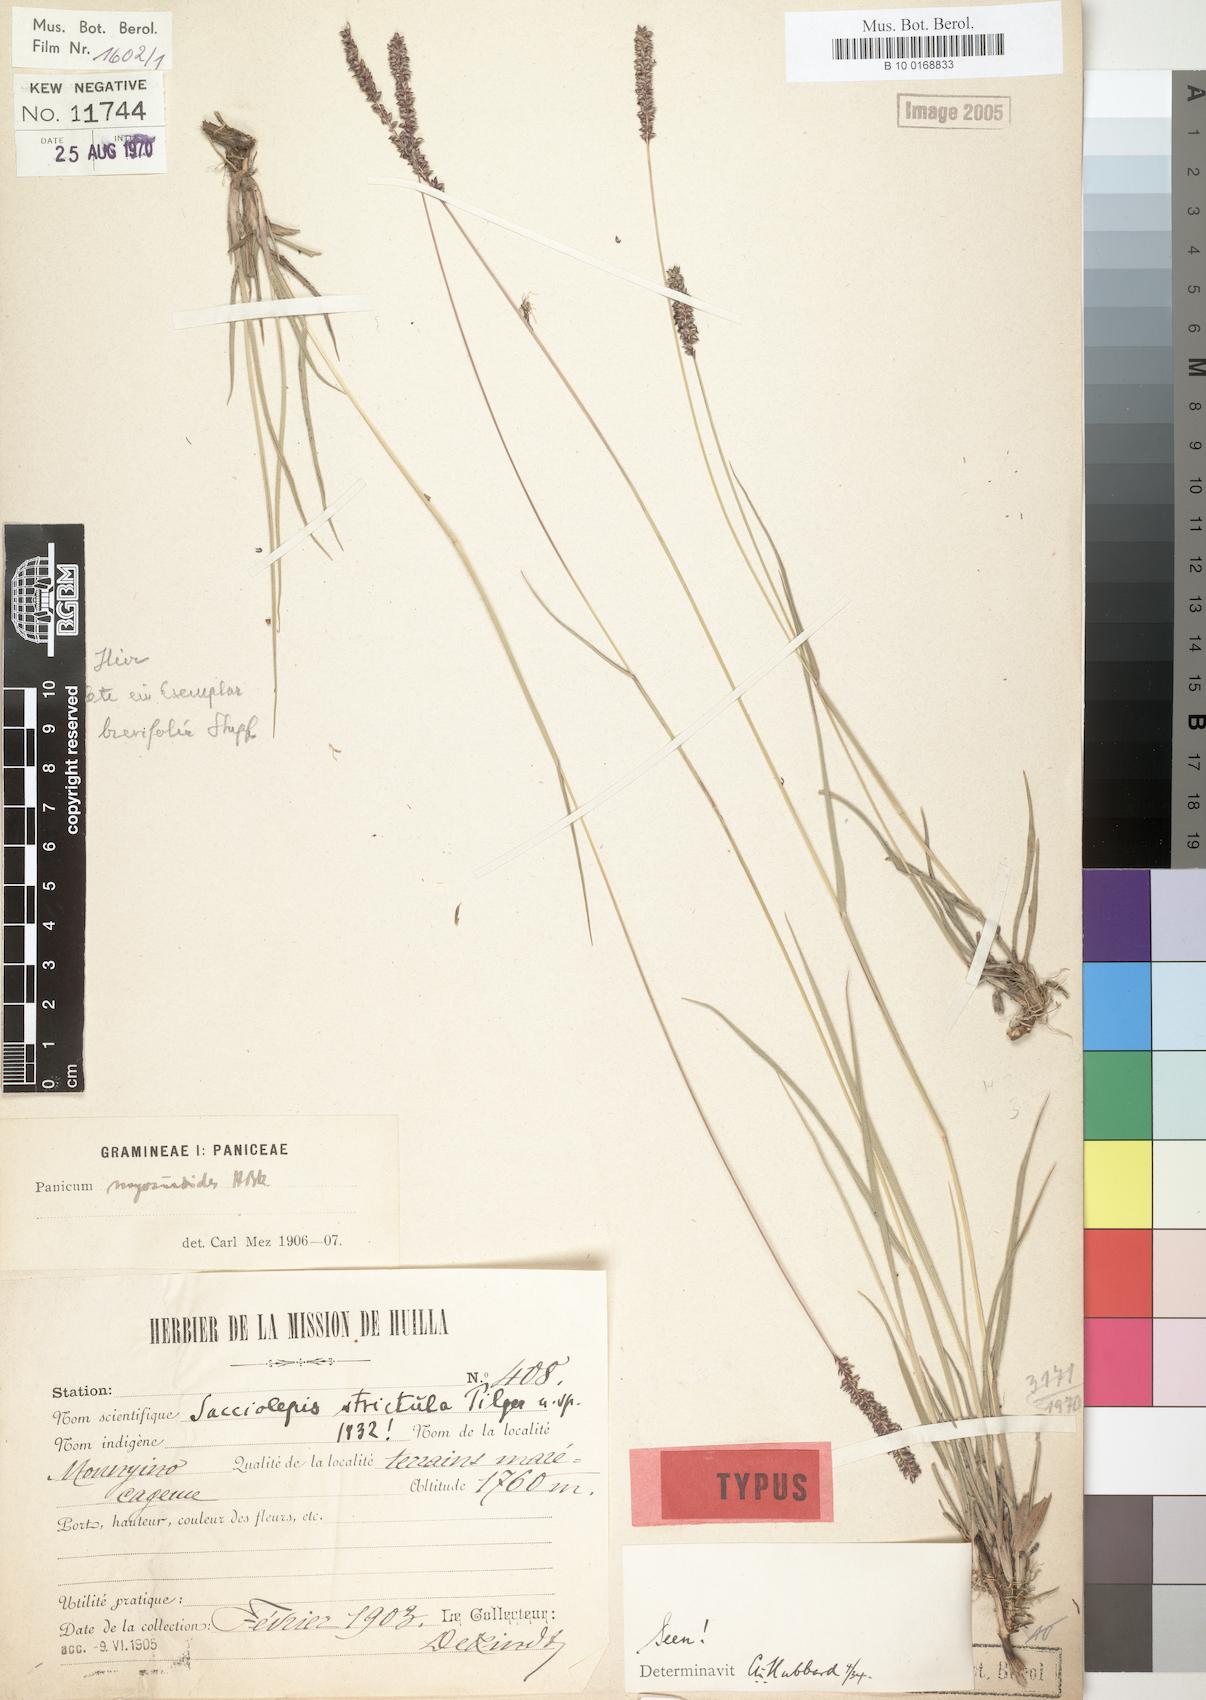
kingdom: Plantae
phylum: Tracheophyta
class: Liliopsida
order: Poales
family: Poaceae
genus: Sacciolepis
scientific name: Sacciolepis chevalieri
